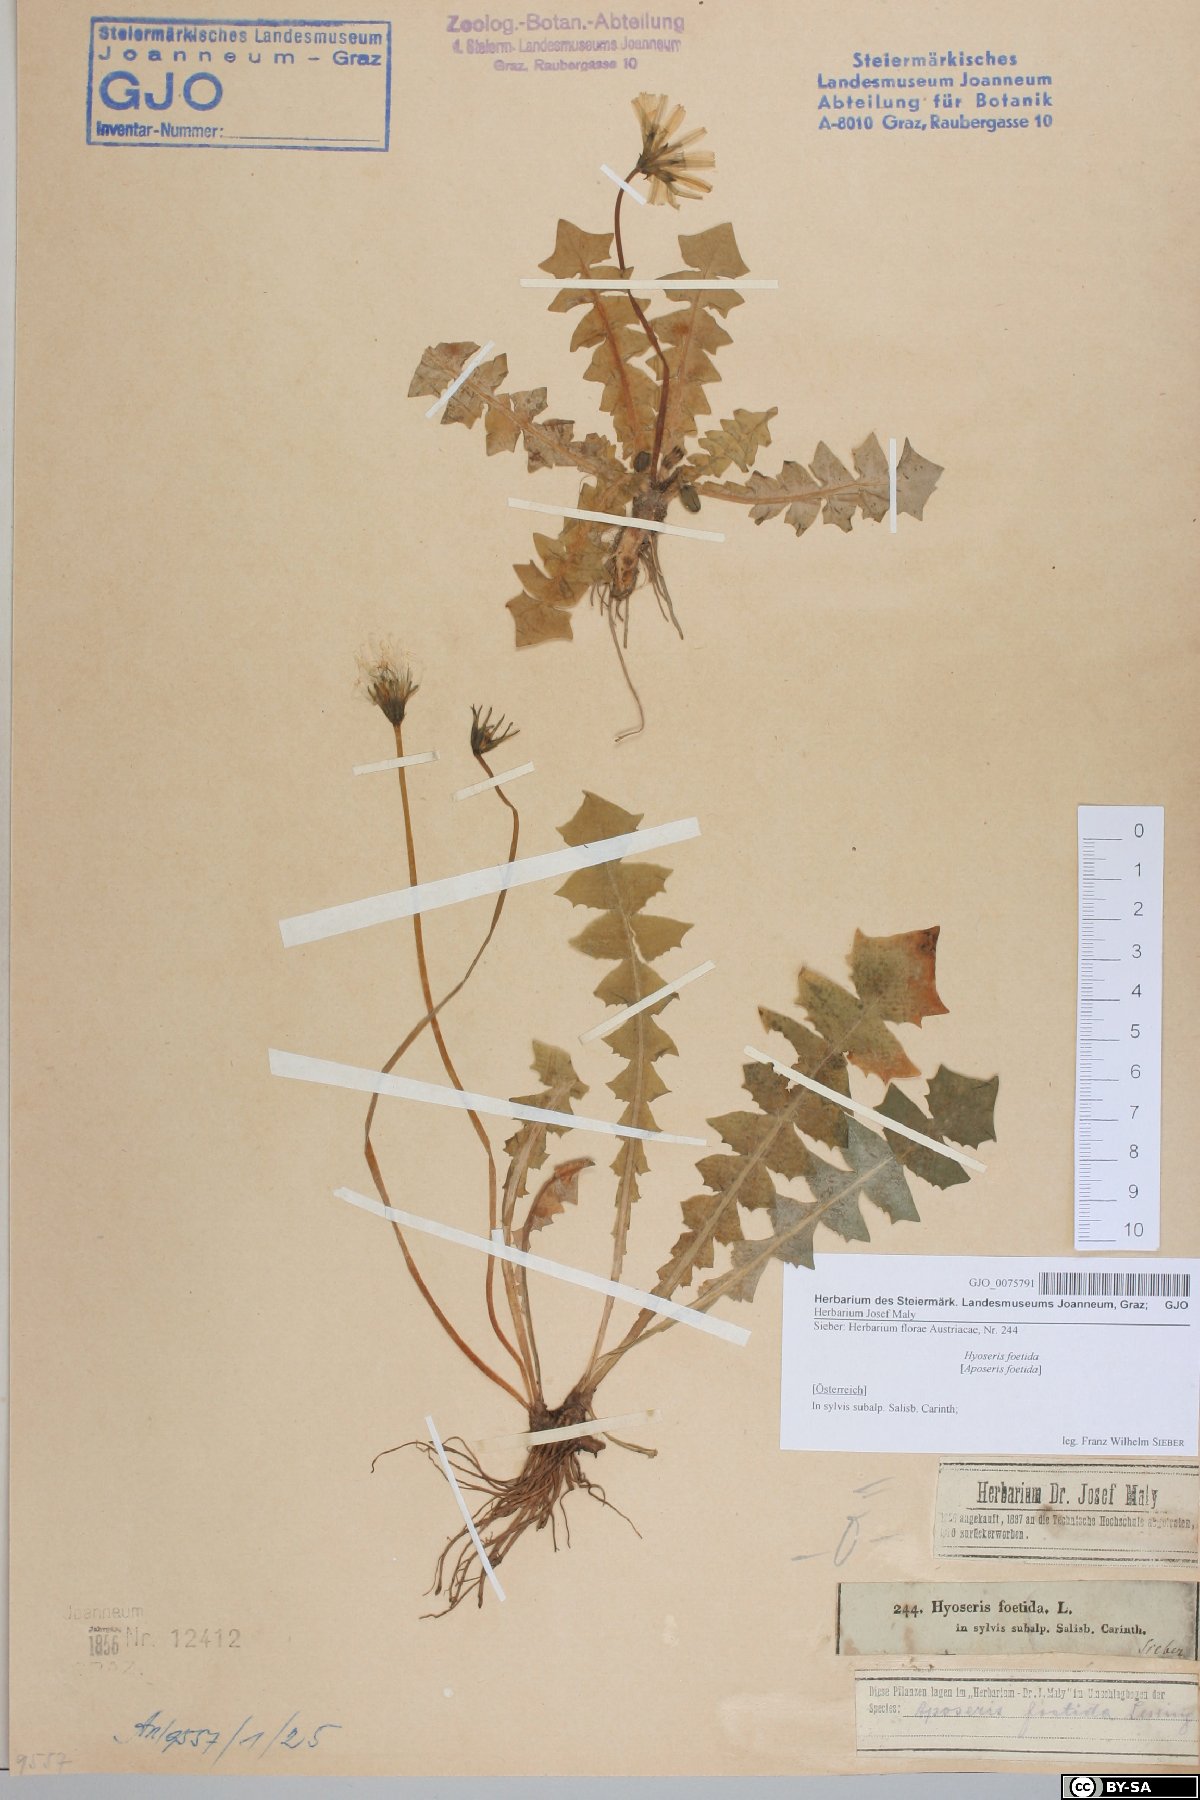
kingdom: Plantae
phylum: Tracheophyta
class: Magnoliopsida
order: Asterales
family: Asteraceae
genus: Aposeris
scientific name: Aposeris foetida
